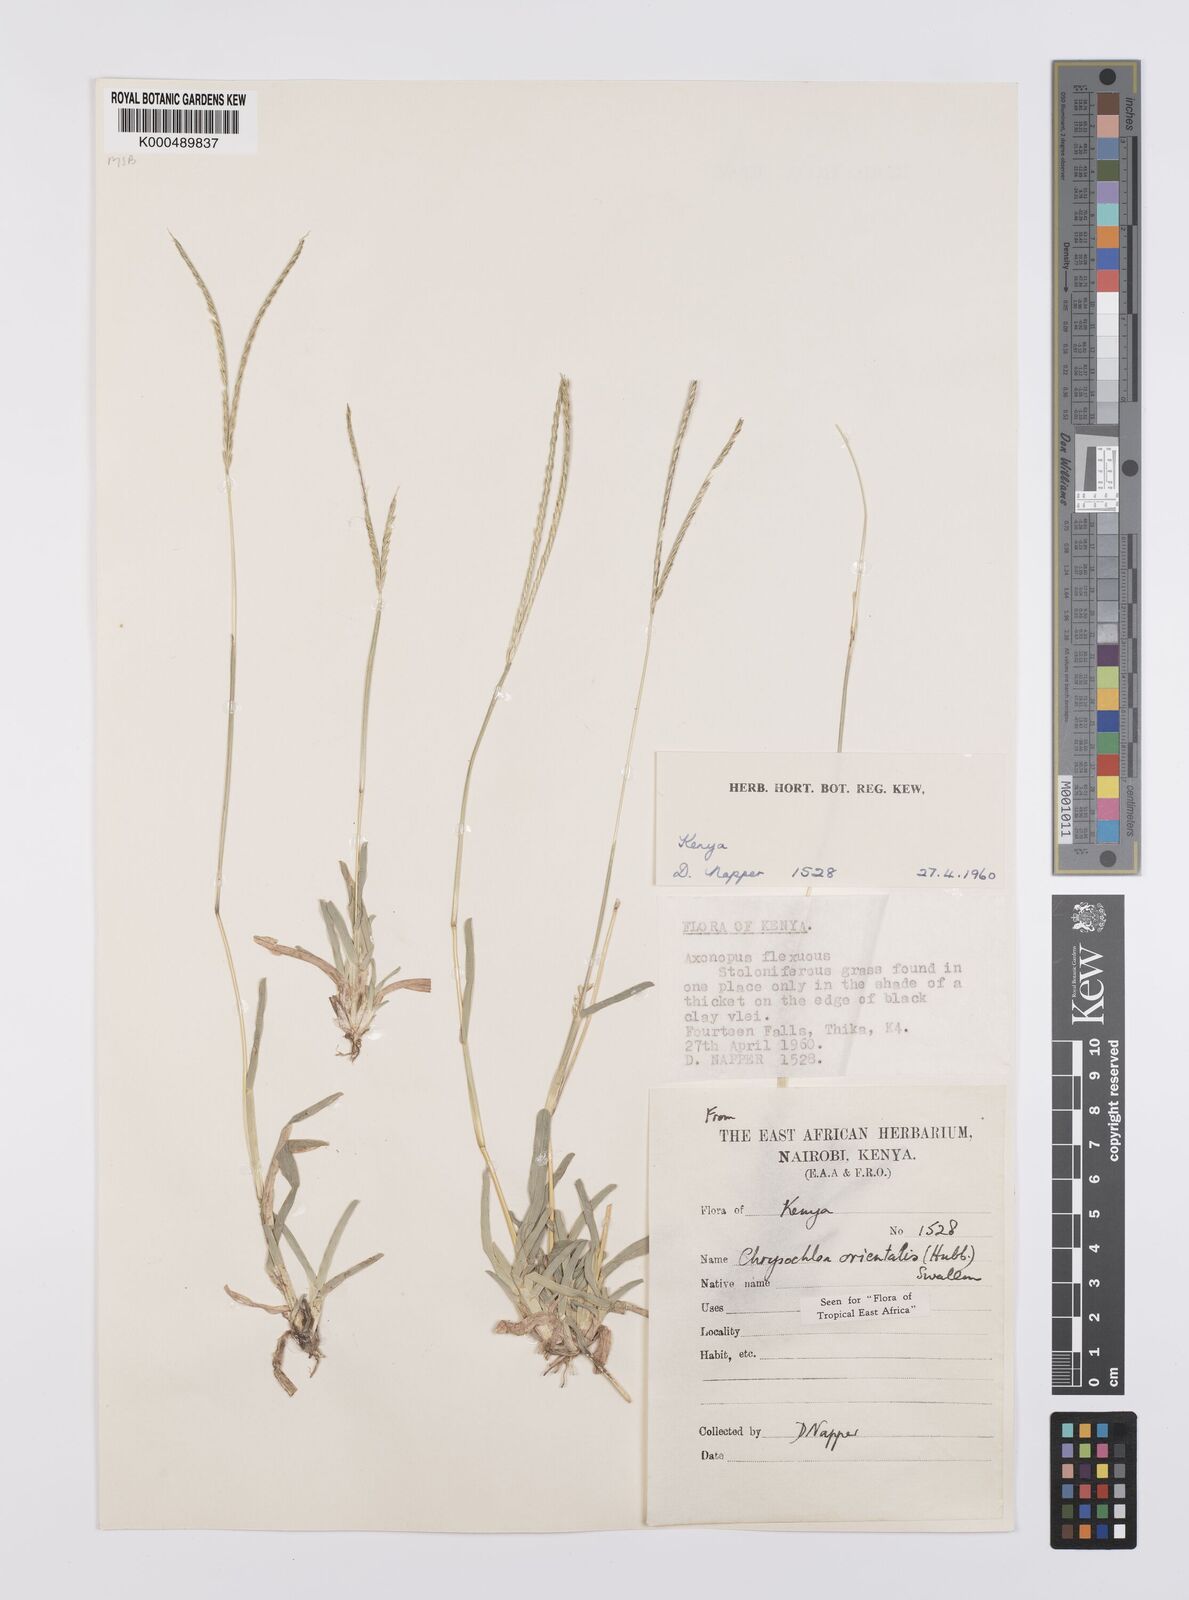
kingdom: Plantae
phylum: Tracheophyta
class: Liliopsida
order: Poales
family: Poaceae
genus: Chrysochloa
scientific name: Chrysochloa
